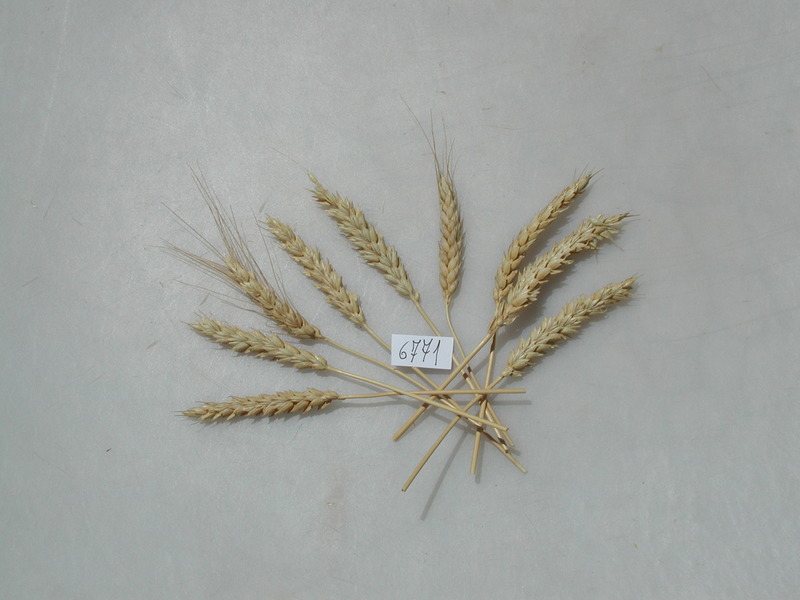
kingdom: Plantae
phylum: Tracheophyta
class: Liliopsida
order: Poales
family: Poaceae
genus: Triticum
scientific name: Triticum aestivum
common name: Wheat
